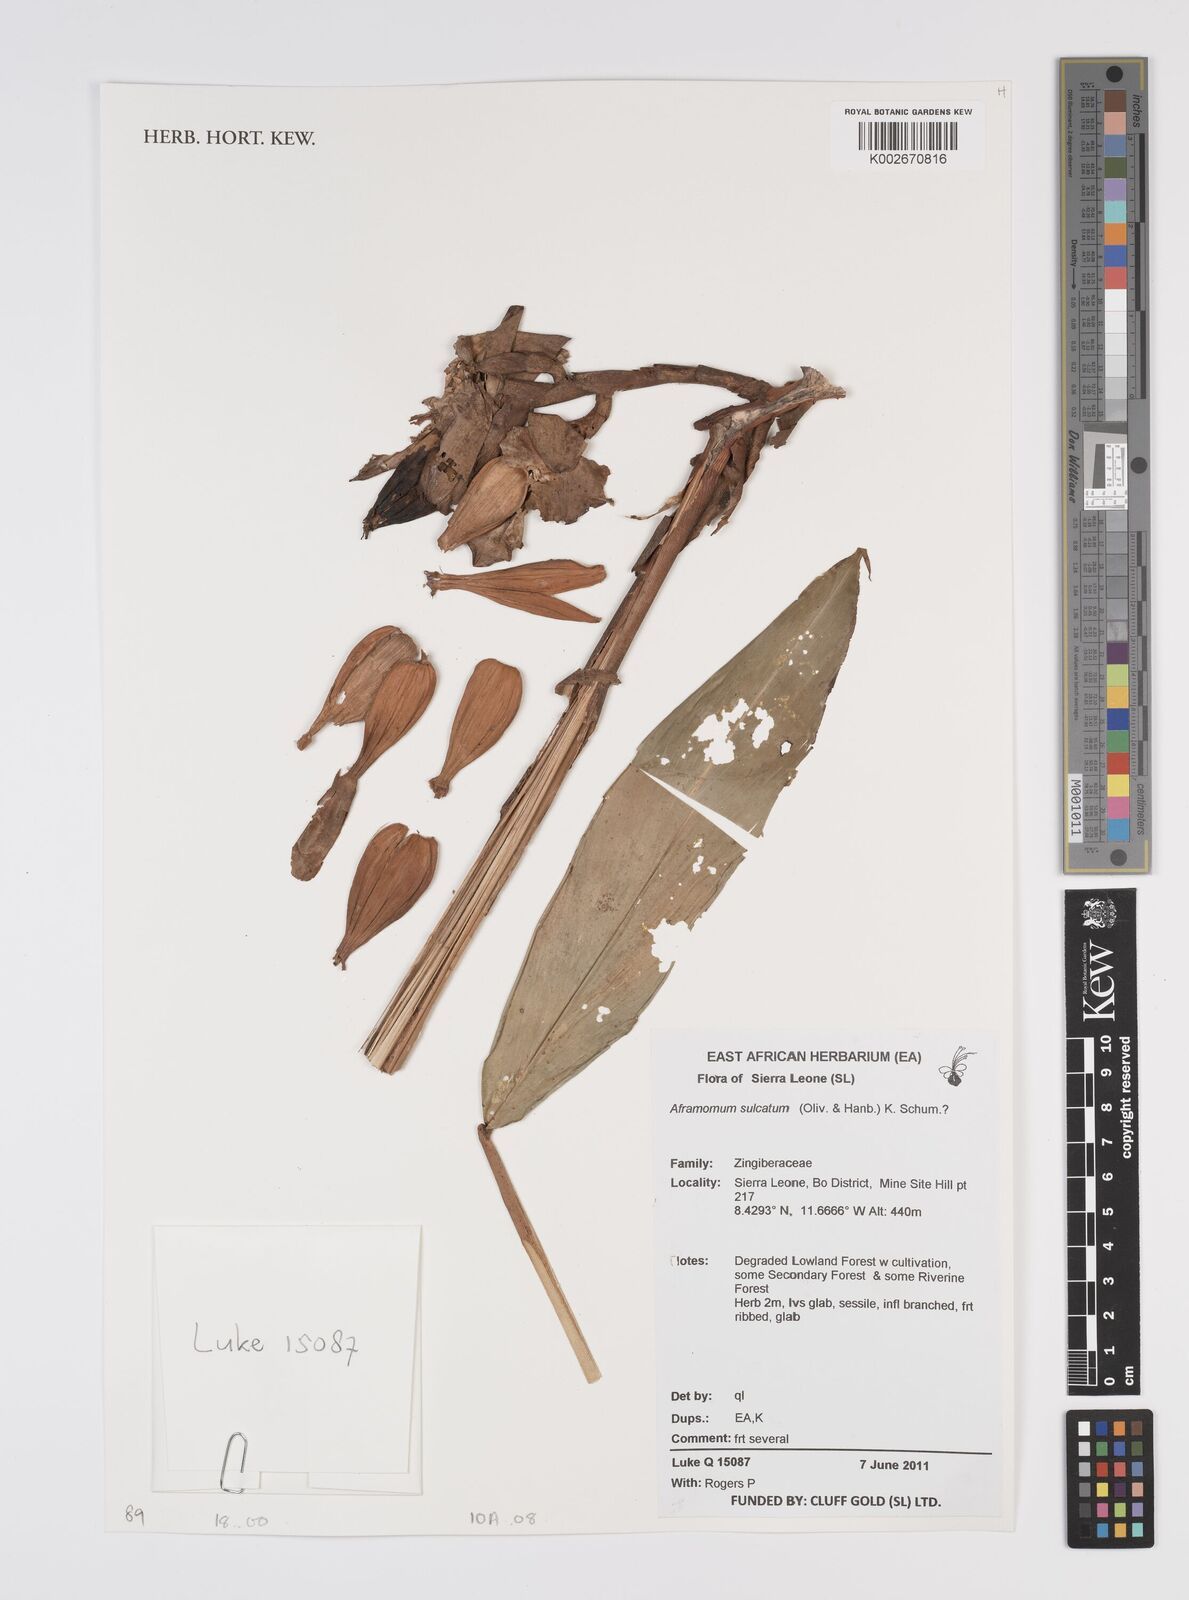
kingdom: Plantae
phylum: Tracheophyta
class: Liliopsida
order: Zingiberales
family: Zingiberaceae
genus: Aframomum
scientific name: Aframomum sulcatum
